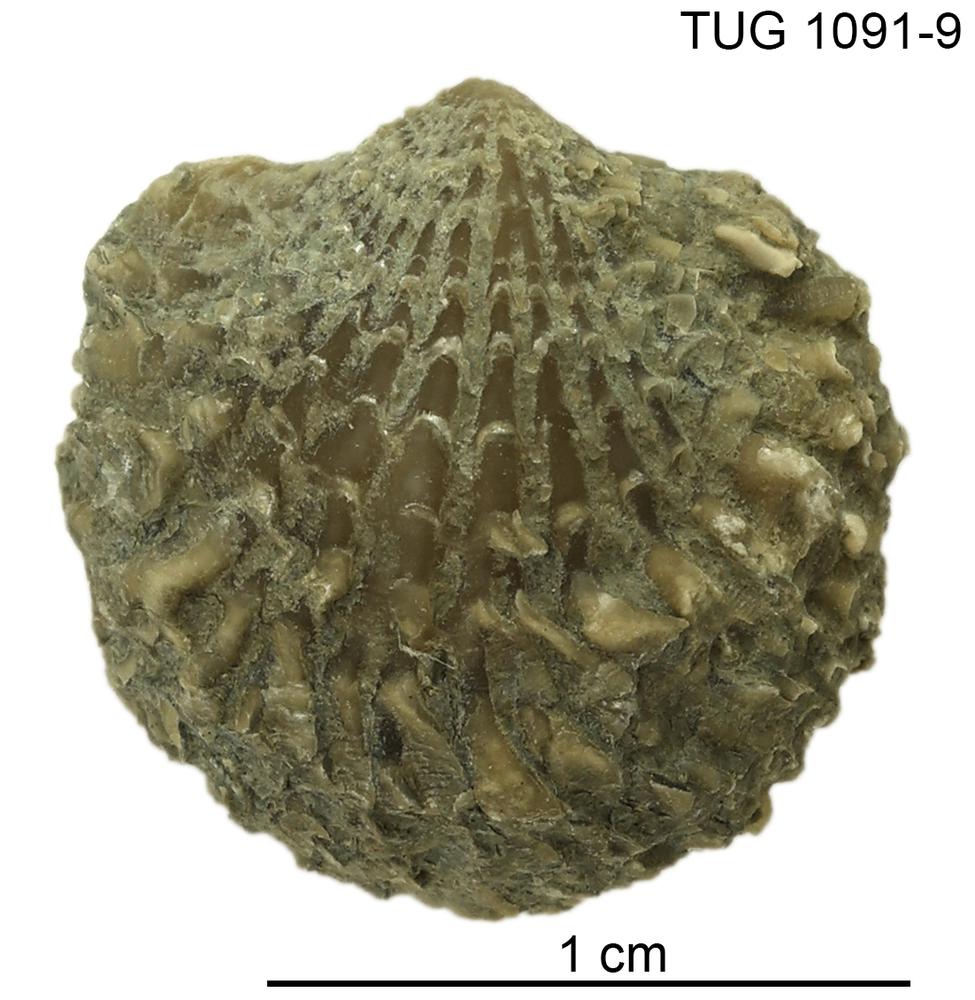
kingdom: Animalia
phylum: Brachiopoda
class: Rhynchonellata
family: Atrypidae
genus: Atrypa
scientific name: Atrypa
